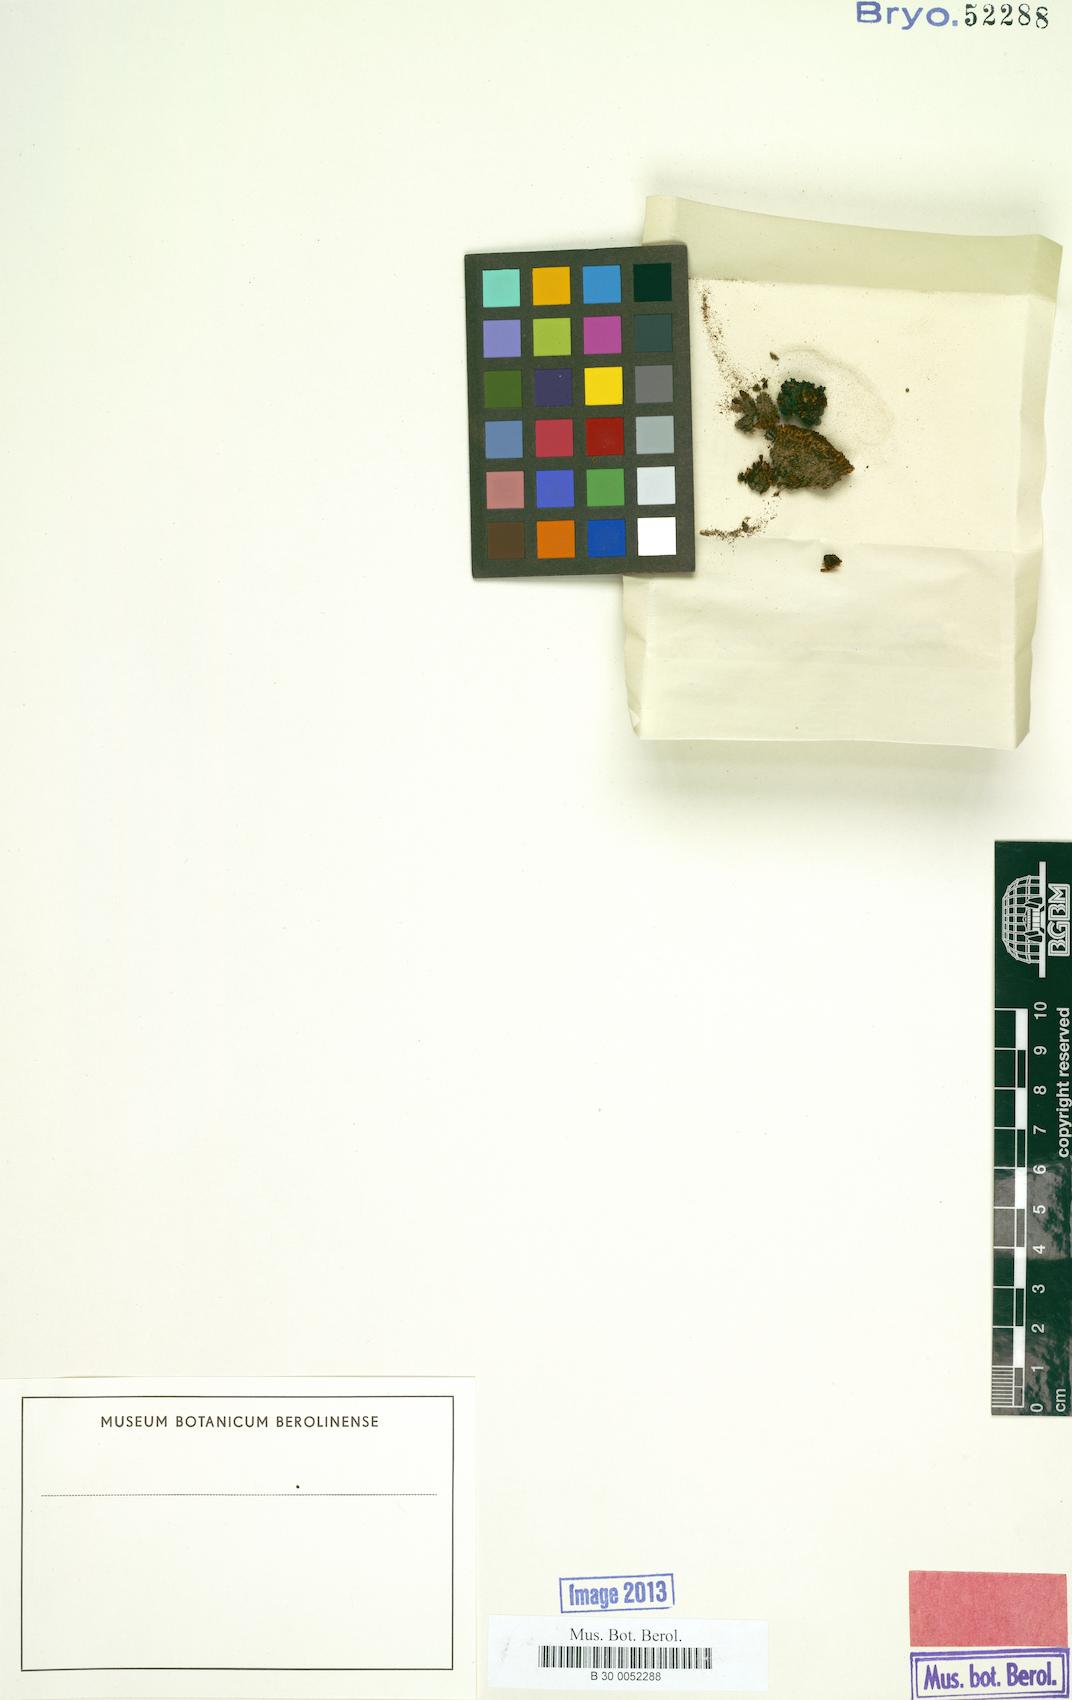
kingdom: Plantae
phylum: Bryophyta
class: Bryopsida
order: Pottiales
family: Pottiaceae
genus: Hyophila
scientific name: Hyophila novae-seelandiae
